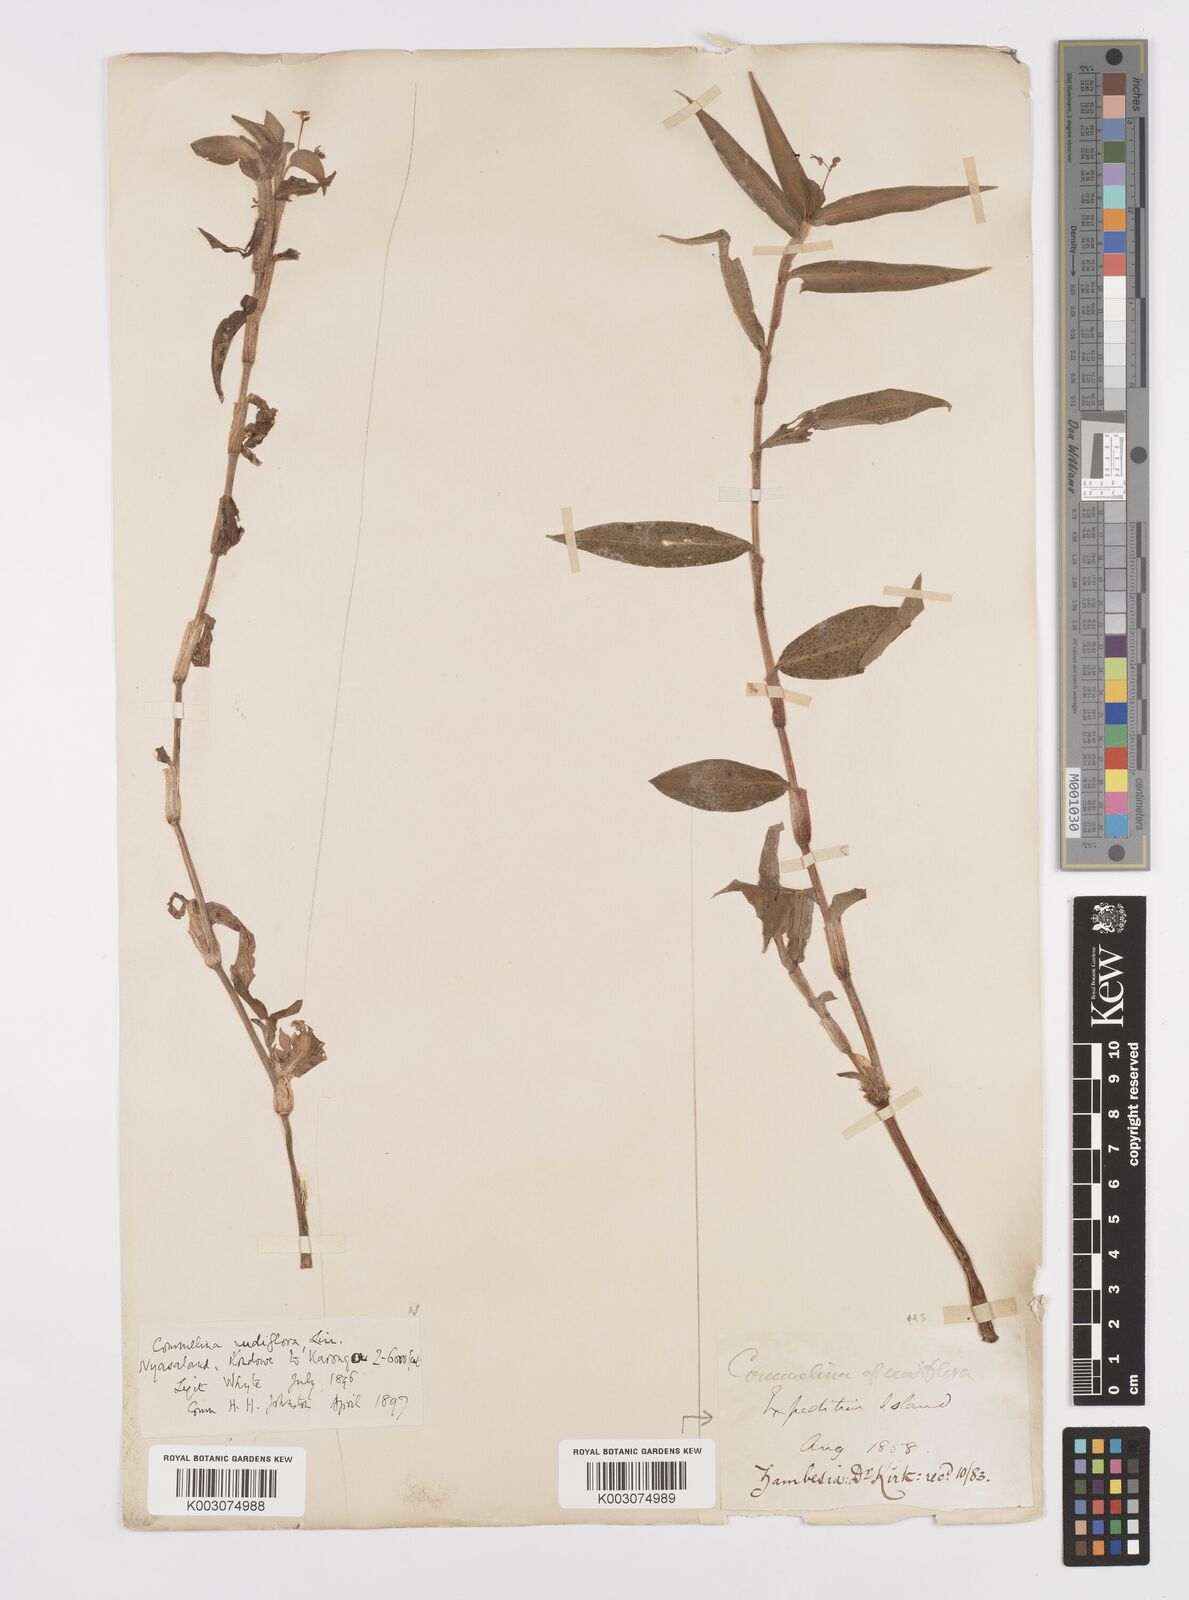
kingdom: Plantae
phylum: Tracheophyta
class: Liliopsida
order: Commelinales
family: Commelinaceae
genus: Commelina
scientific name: Commelina diffusa
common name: Climbing dayflower
